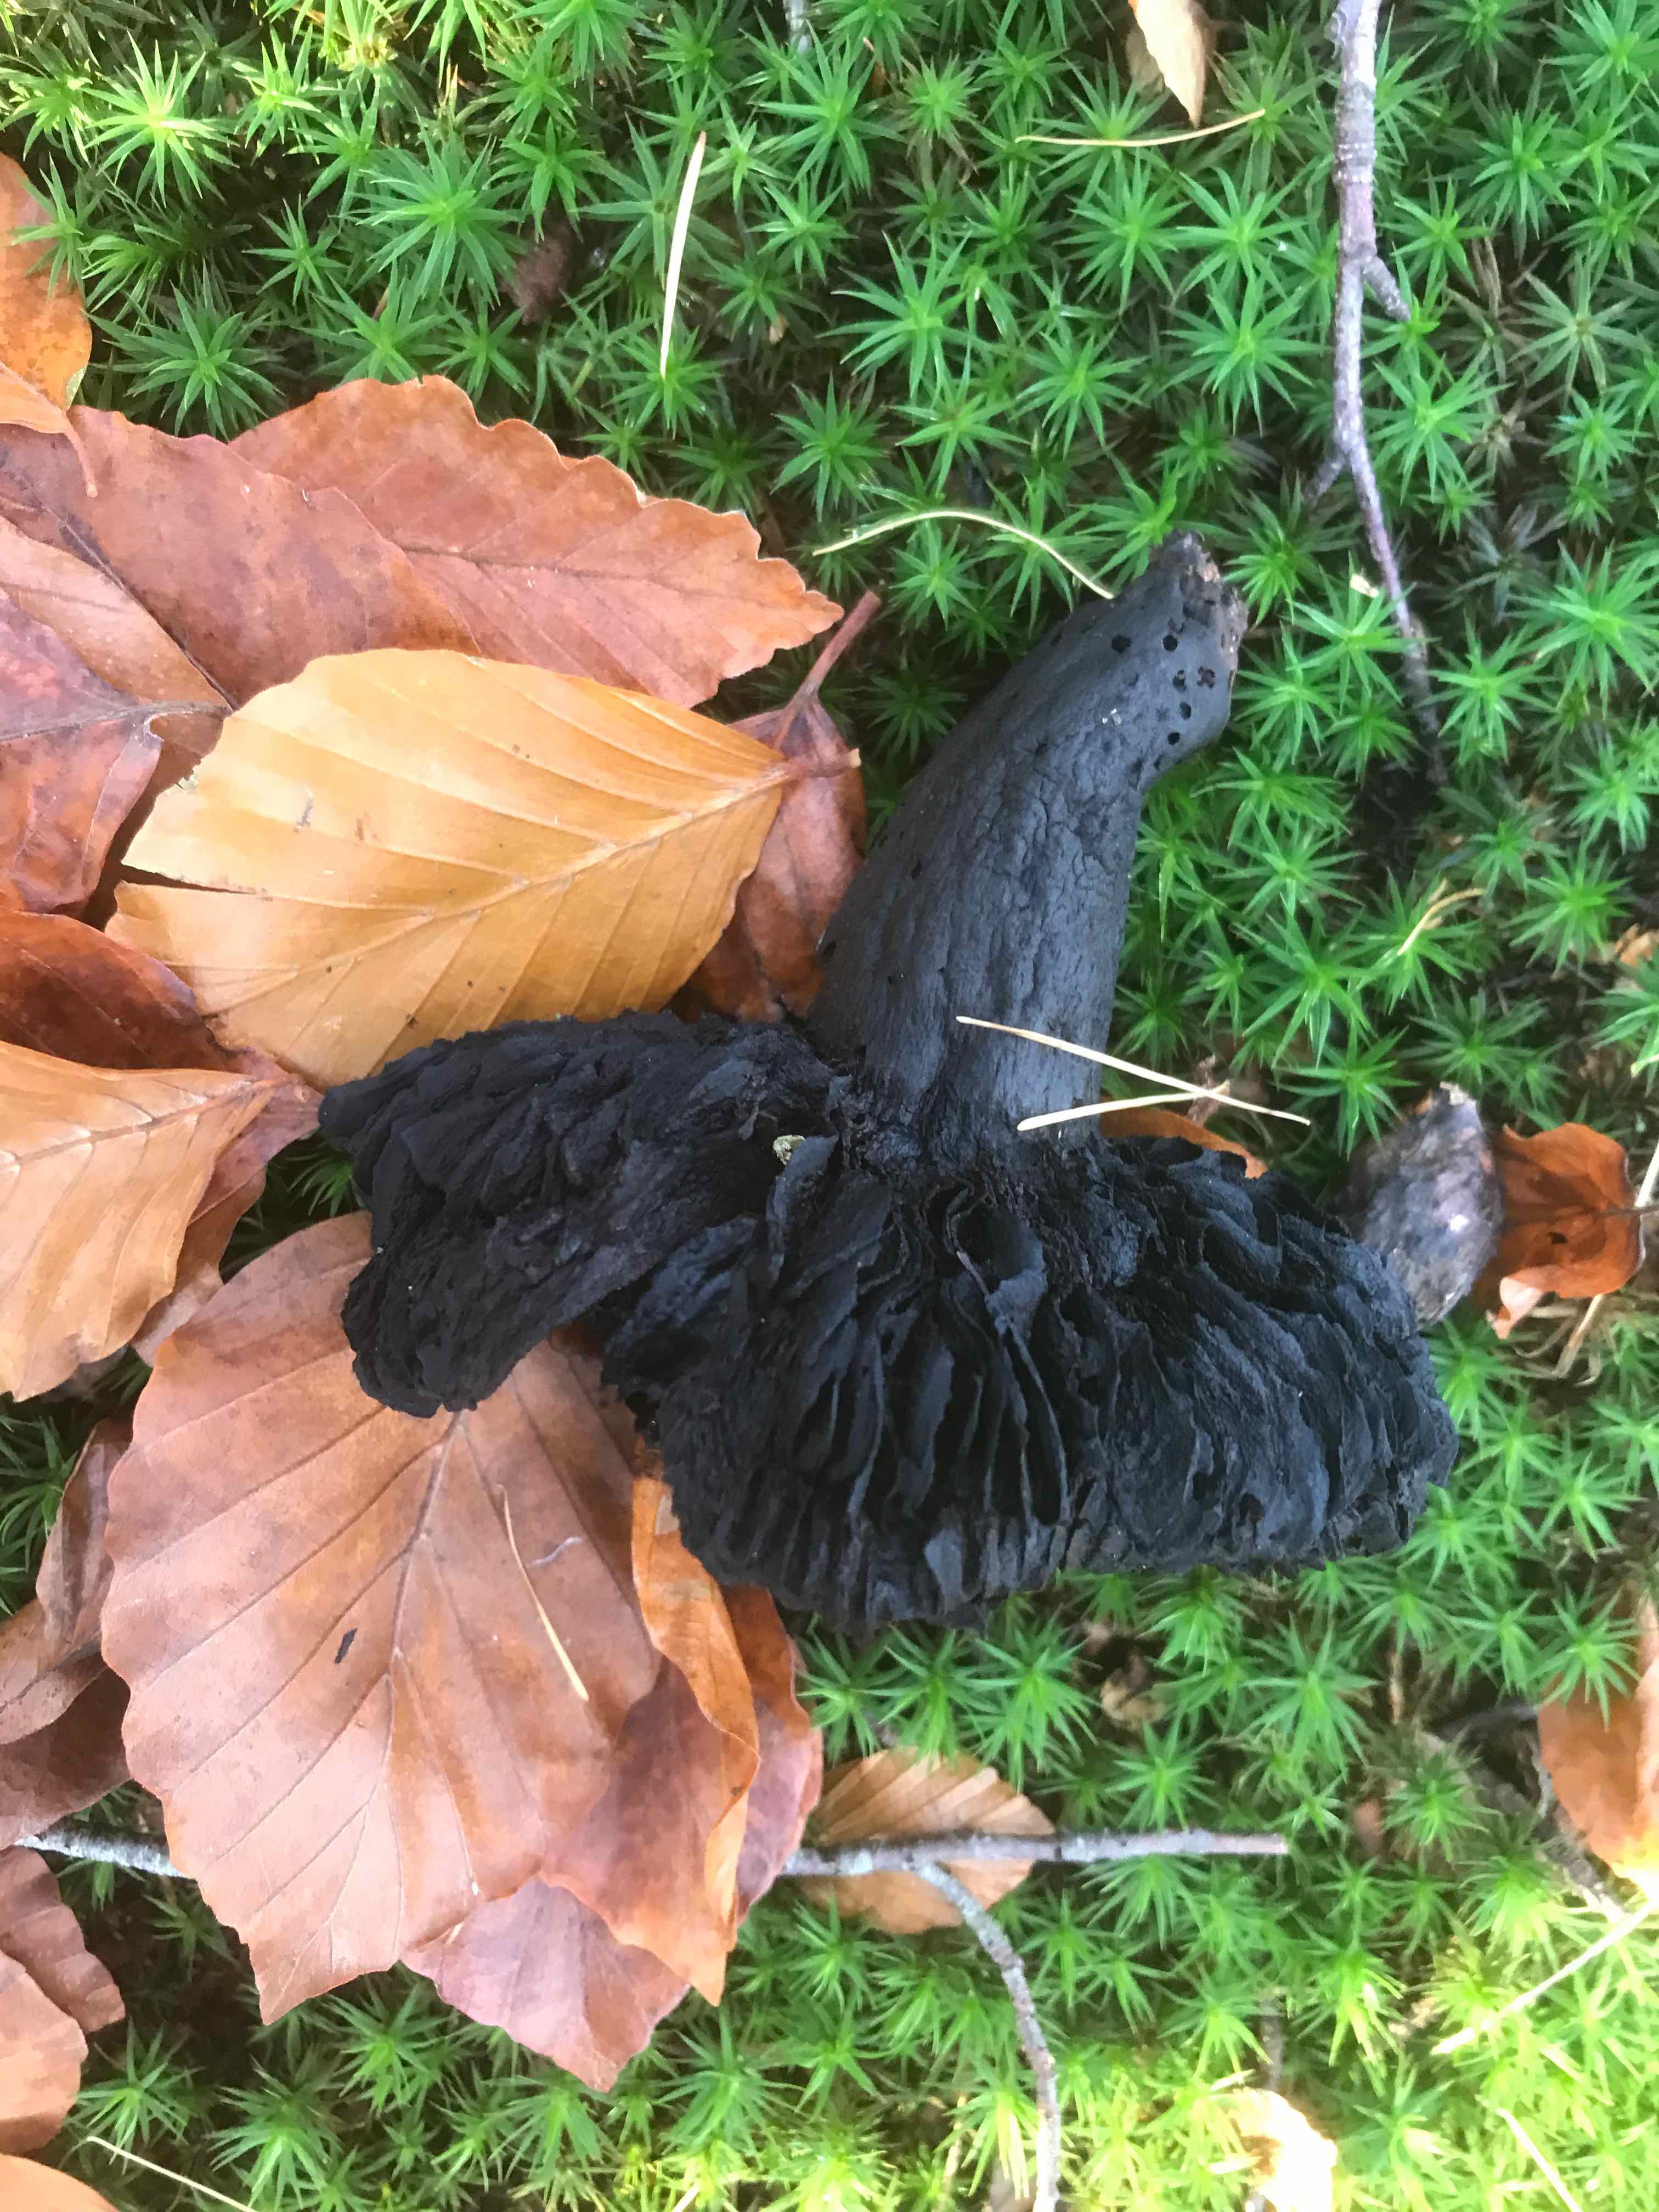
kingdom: Fungi
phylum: Basidiomycota
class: Agaricomycetes
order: Russulales
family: Russulaceae
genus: Russula
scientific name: Russula adusta
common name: sværtende skørhat
